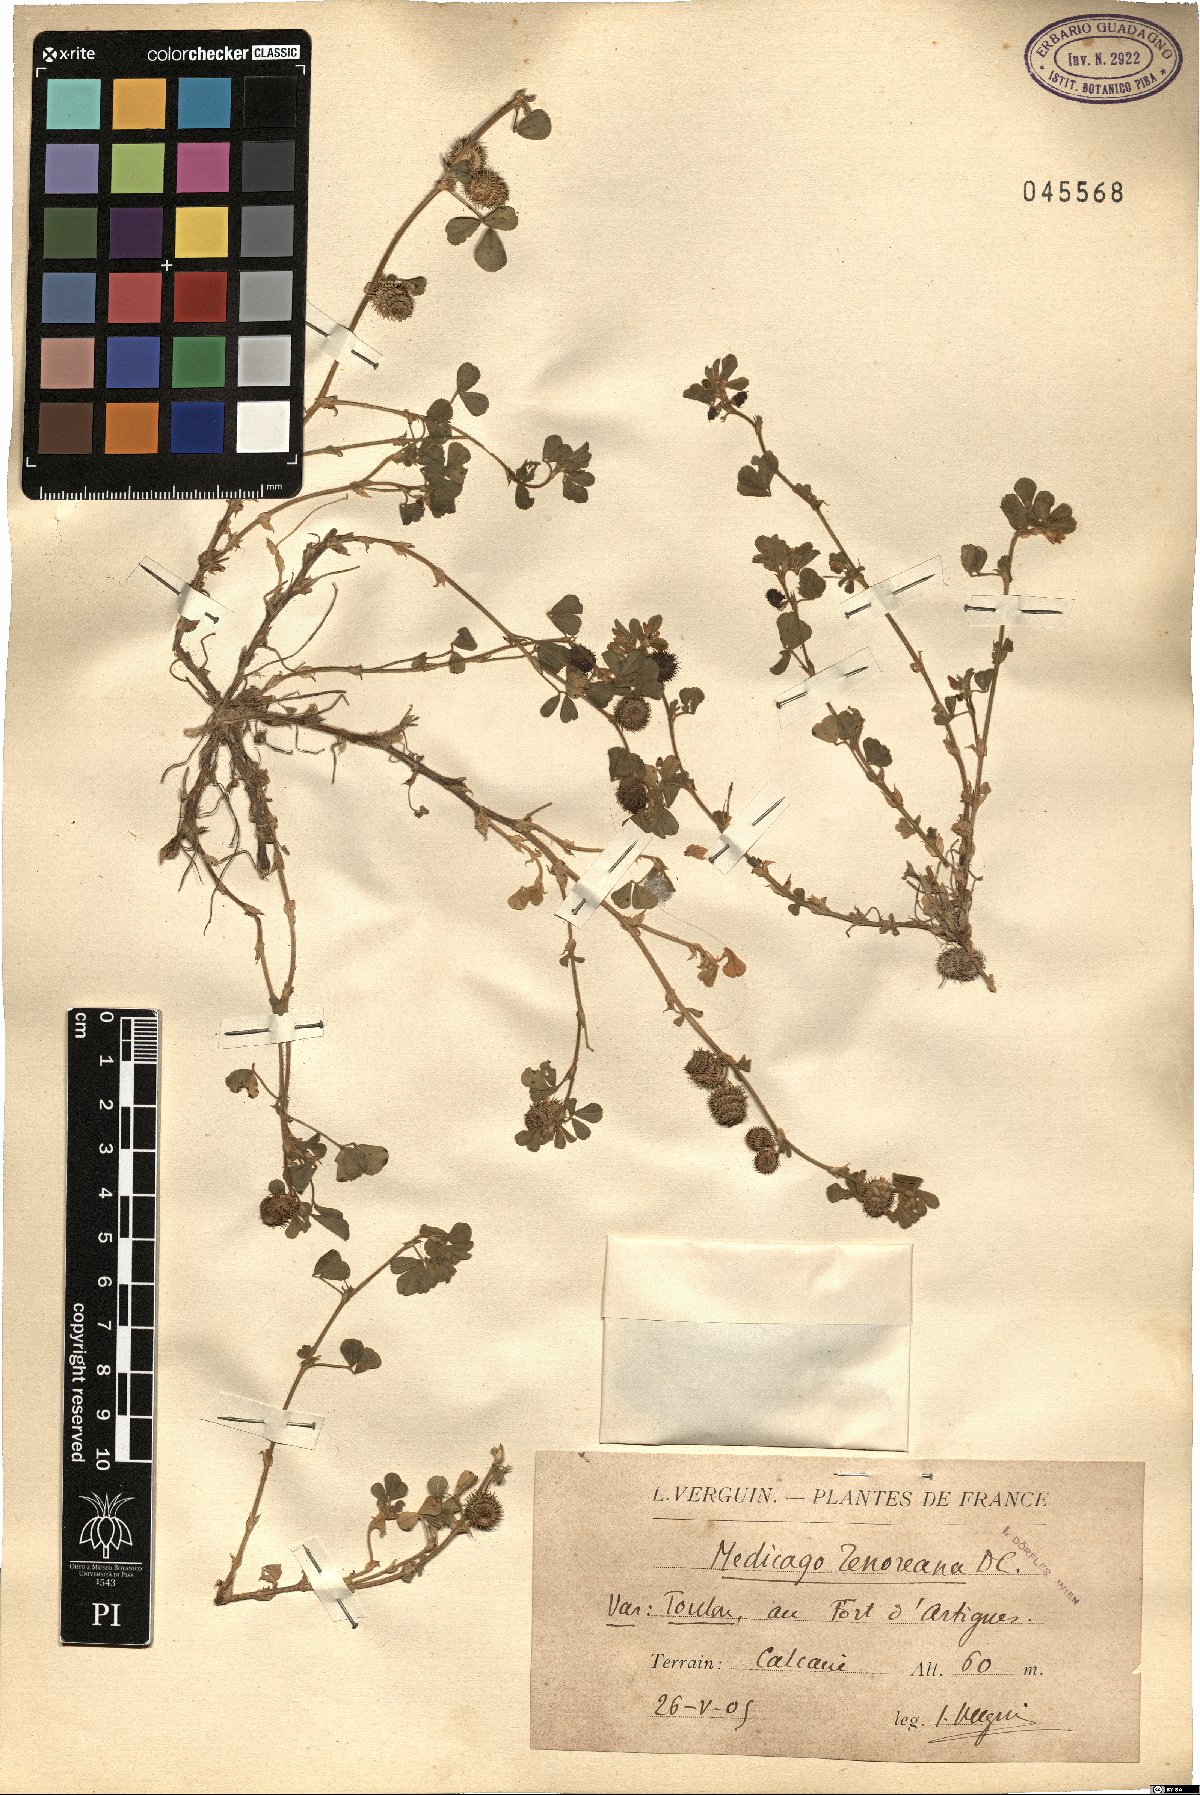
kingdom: Plantae
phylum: Tracheophyta
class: Magnoliopsida
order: Fabales
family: Fabaceae
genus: Medicago
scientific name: Medicago tenoreana
